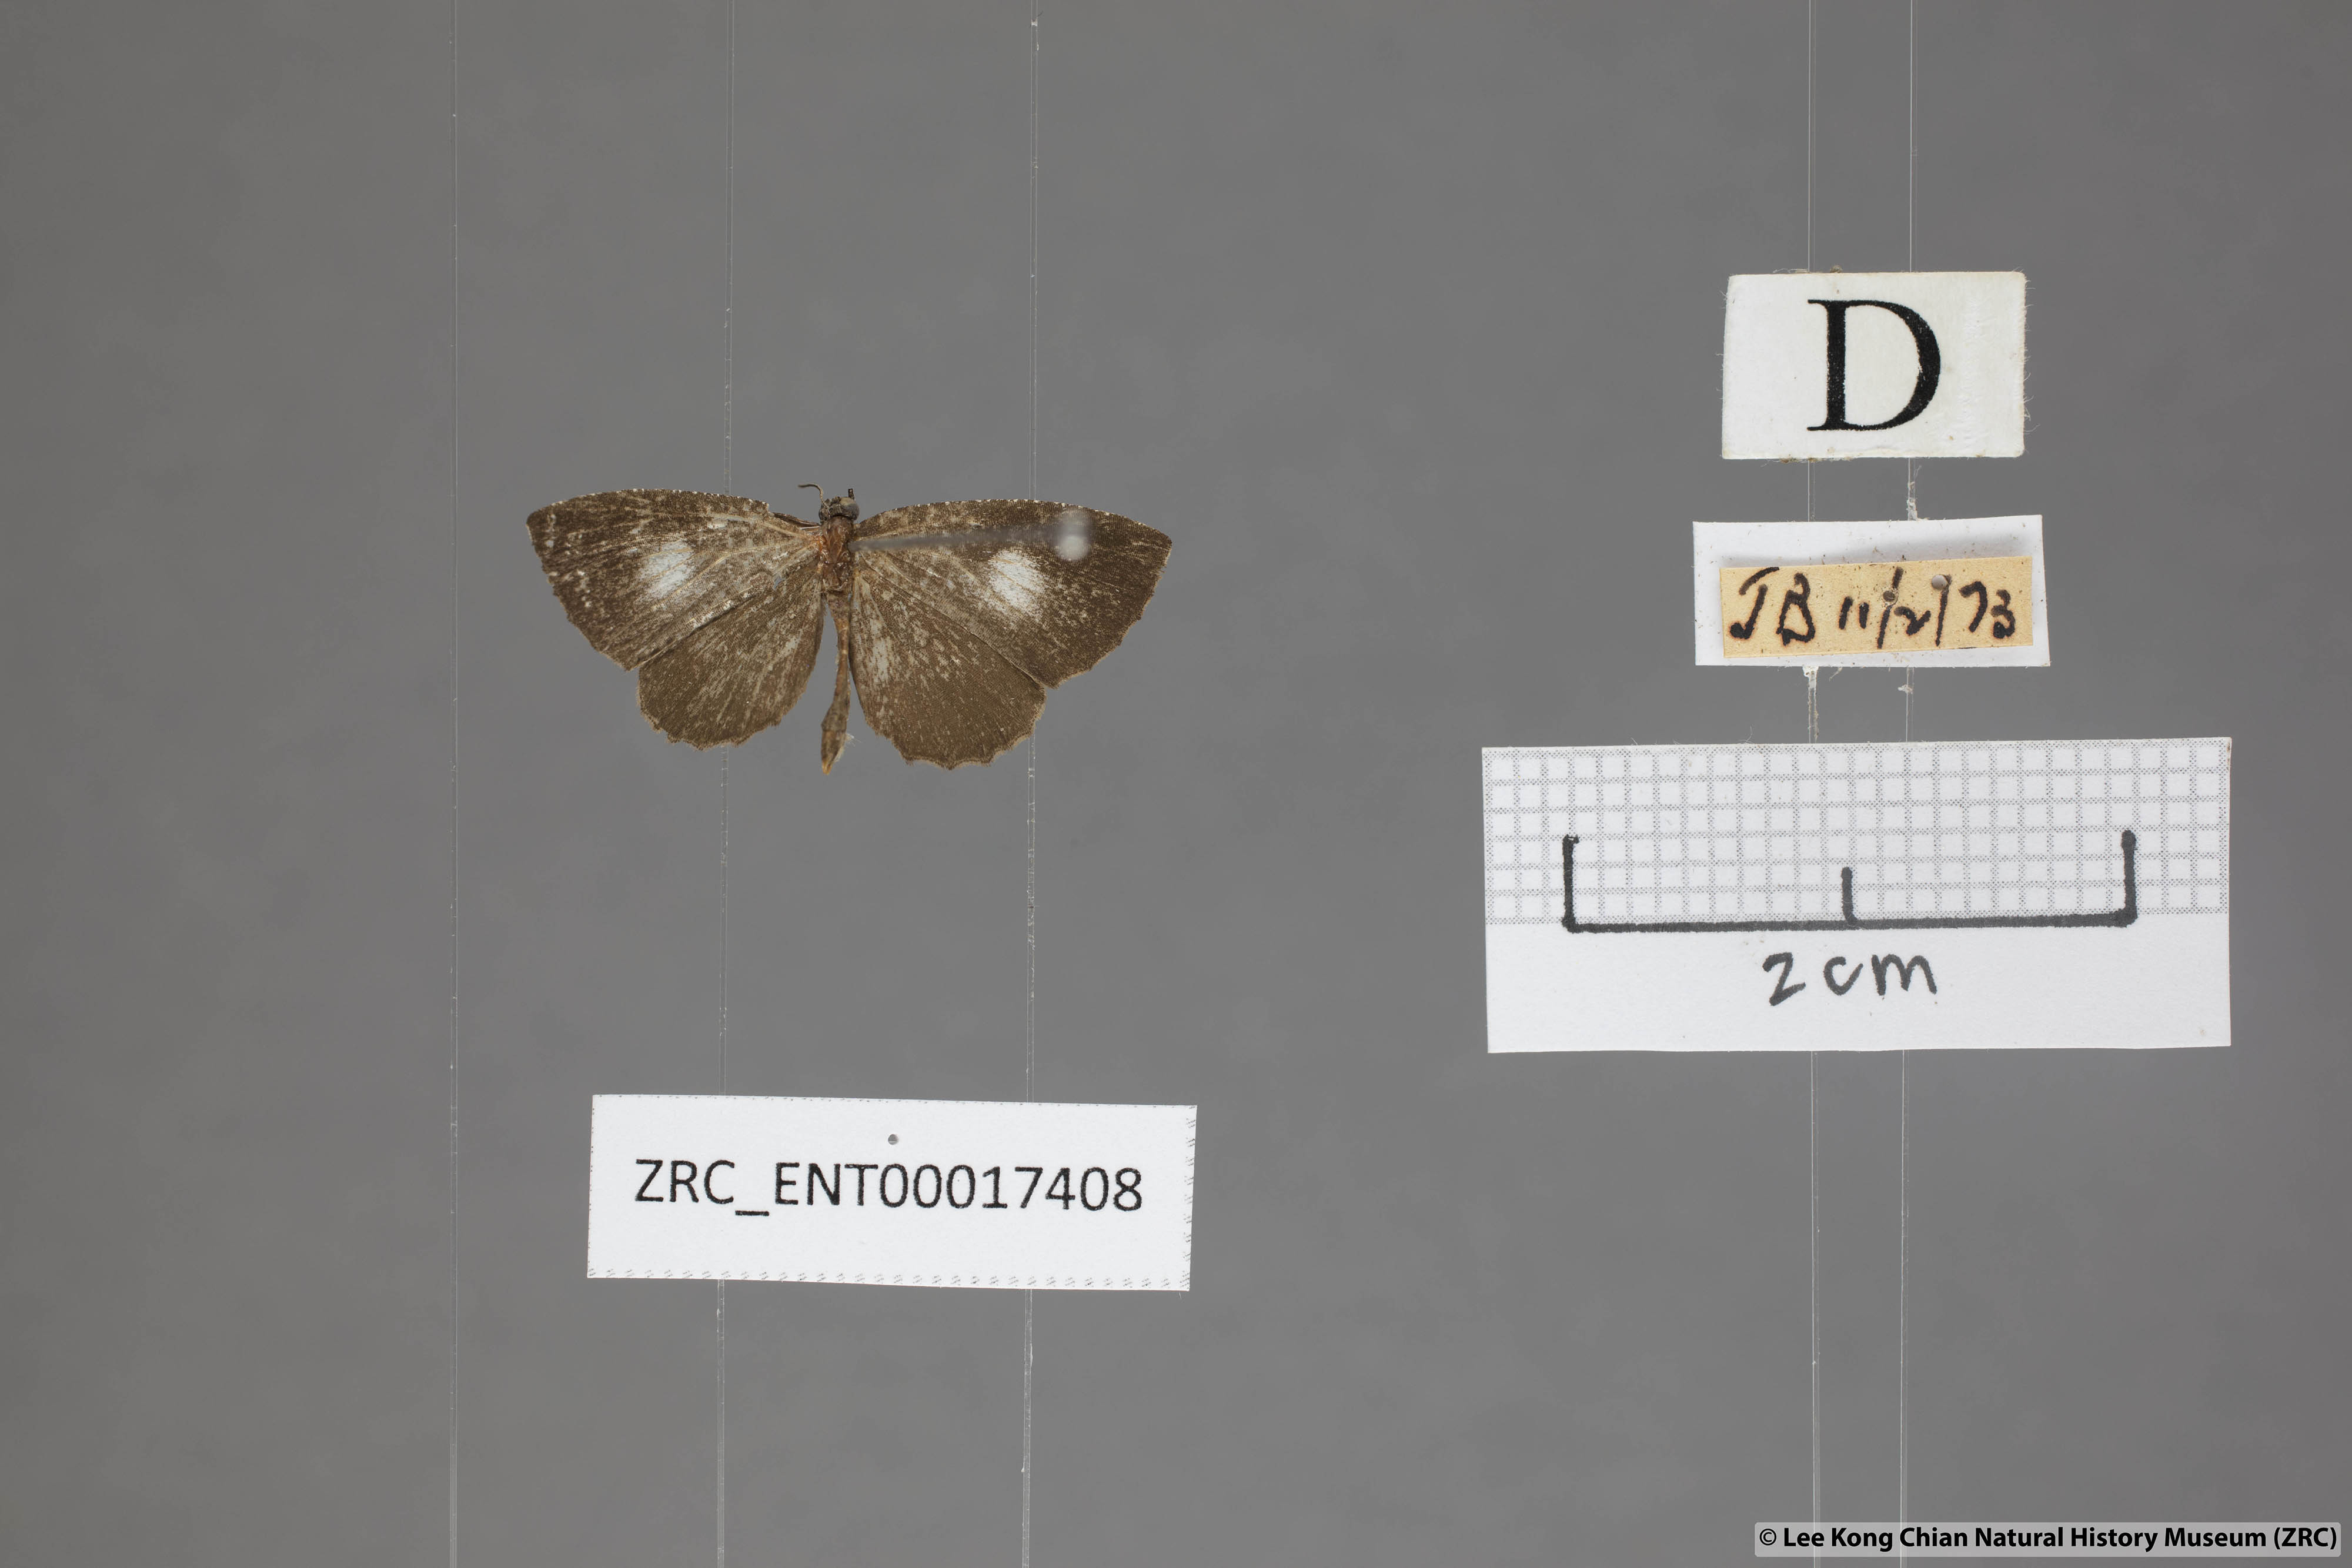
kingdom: Animalia
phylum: Arthropoda
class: Insecta
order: Lepidoptera
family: Lycaenidae
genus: Logania
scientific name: Logania distanti
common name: Dark mottle
